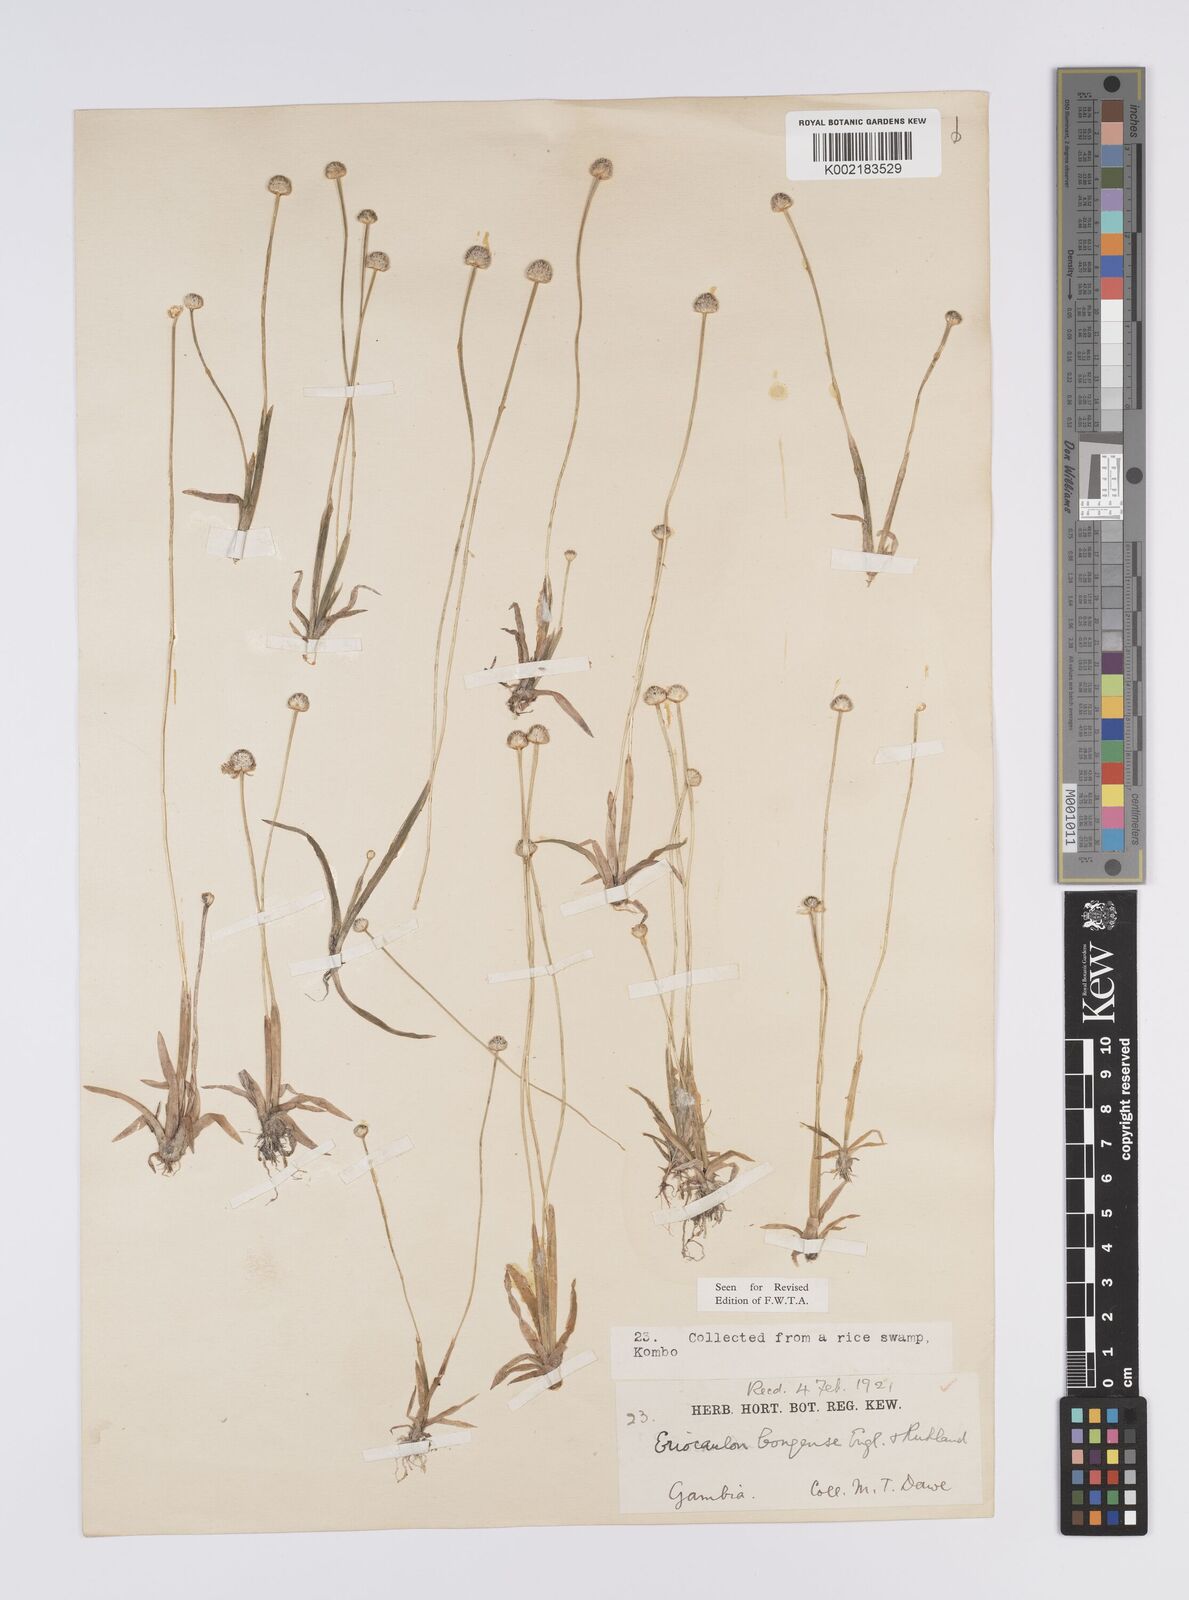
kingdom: Plantae
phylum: Tracheophyta
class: Liliopsida
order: Poales
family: Eriocaulaceae
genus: Eriocaulon
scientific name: Eriocaulon schimperi
